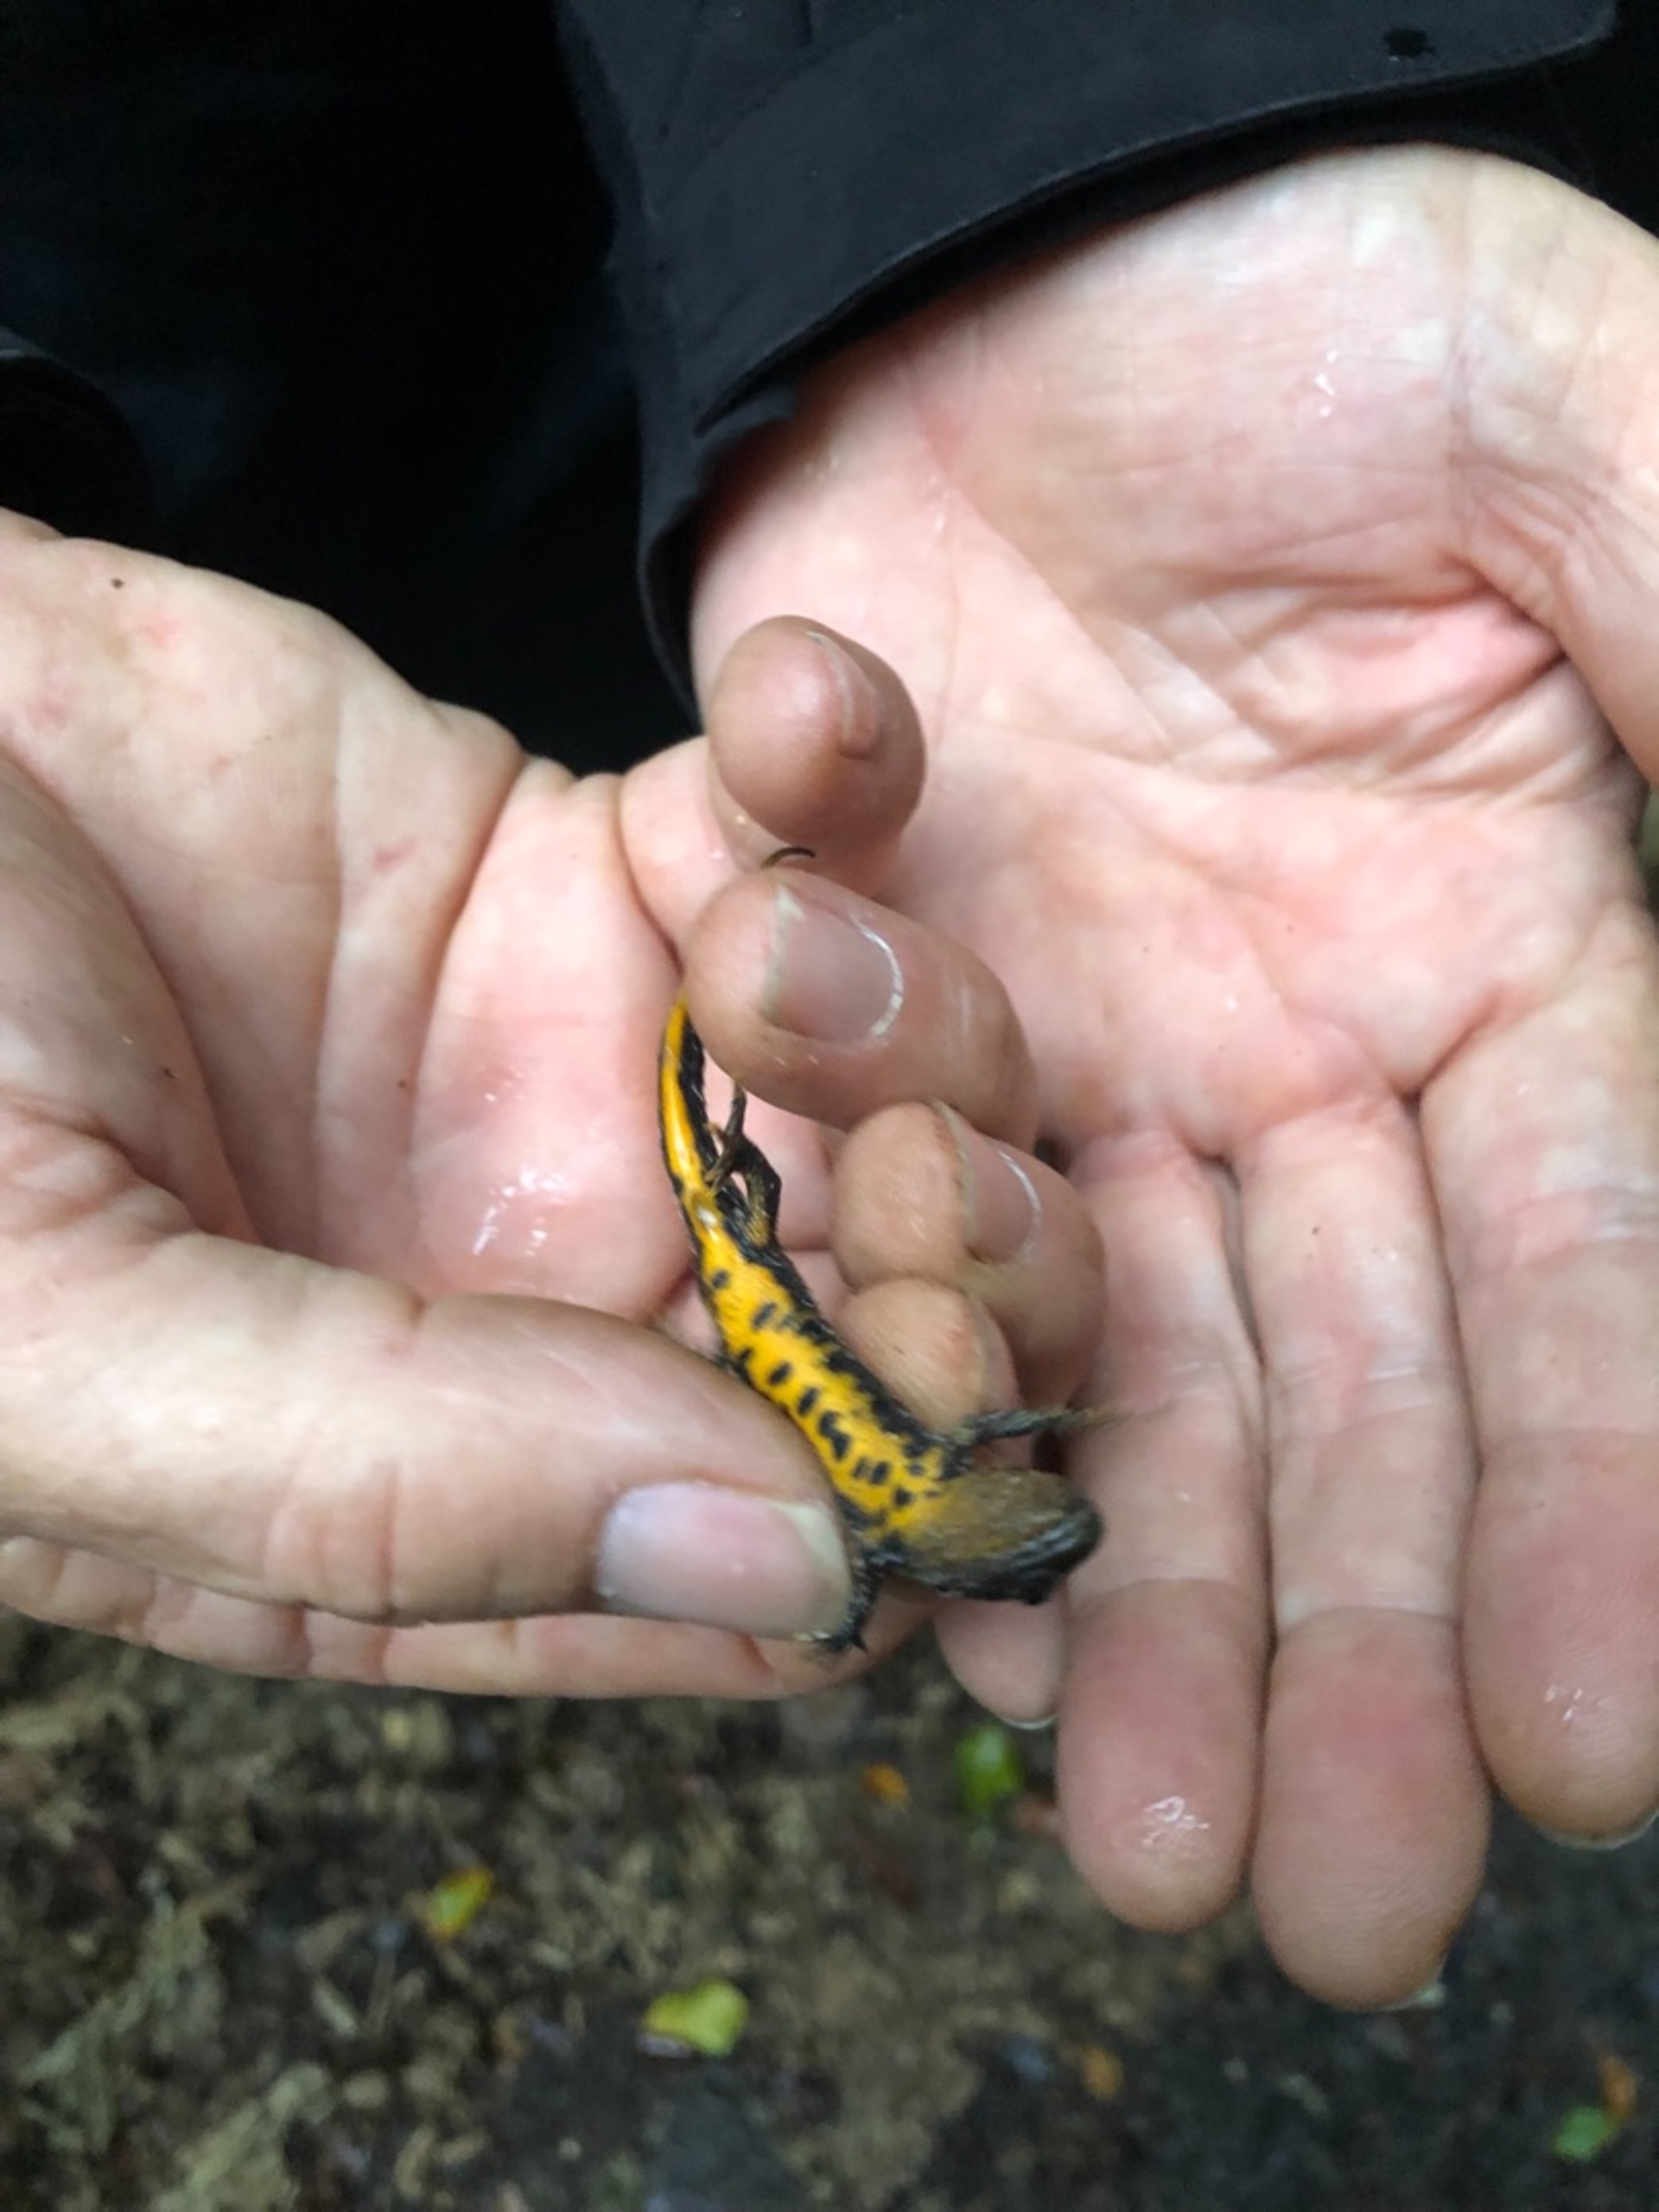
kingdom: Animalia
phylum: Chordata
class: Amphibia
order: Caudata
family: Salamandridae
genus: Triturus
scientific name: Triturus cristatus
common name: Stor vandsalamander
